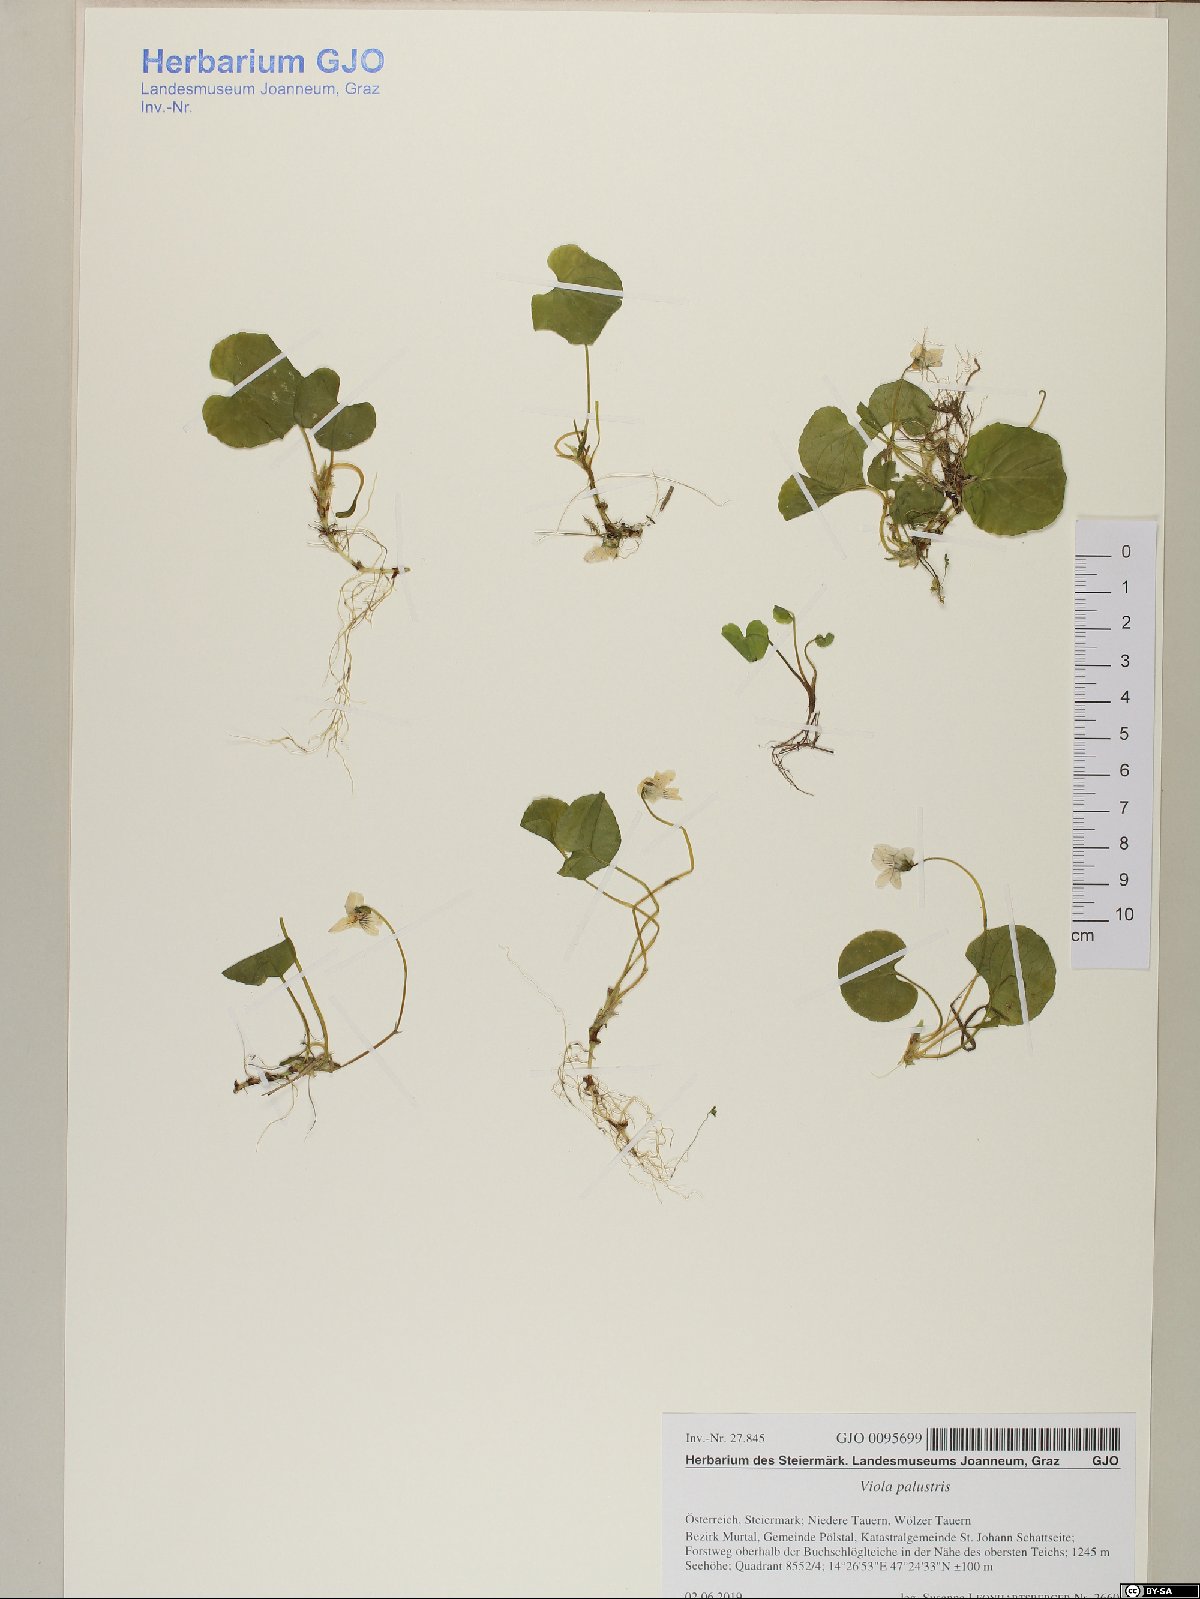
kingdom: Plantae
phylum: Tracheophyta
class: Magnoliopsida
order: Malpighiales
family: Violaceae
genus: Viola
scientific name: Viola palustris
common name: Marsh violet
